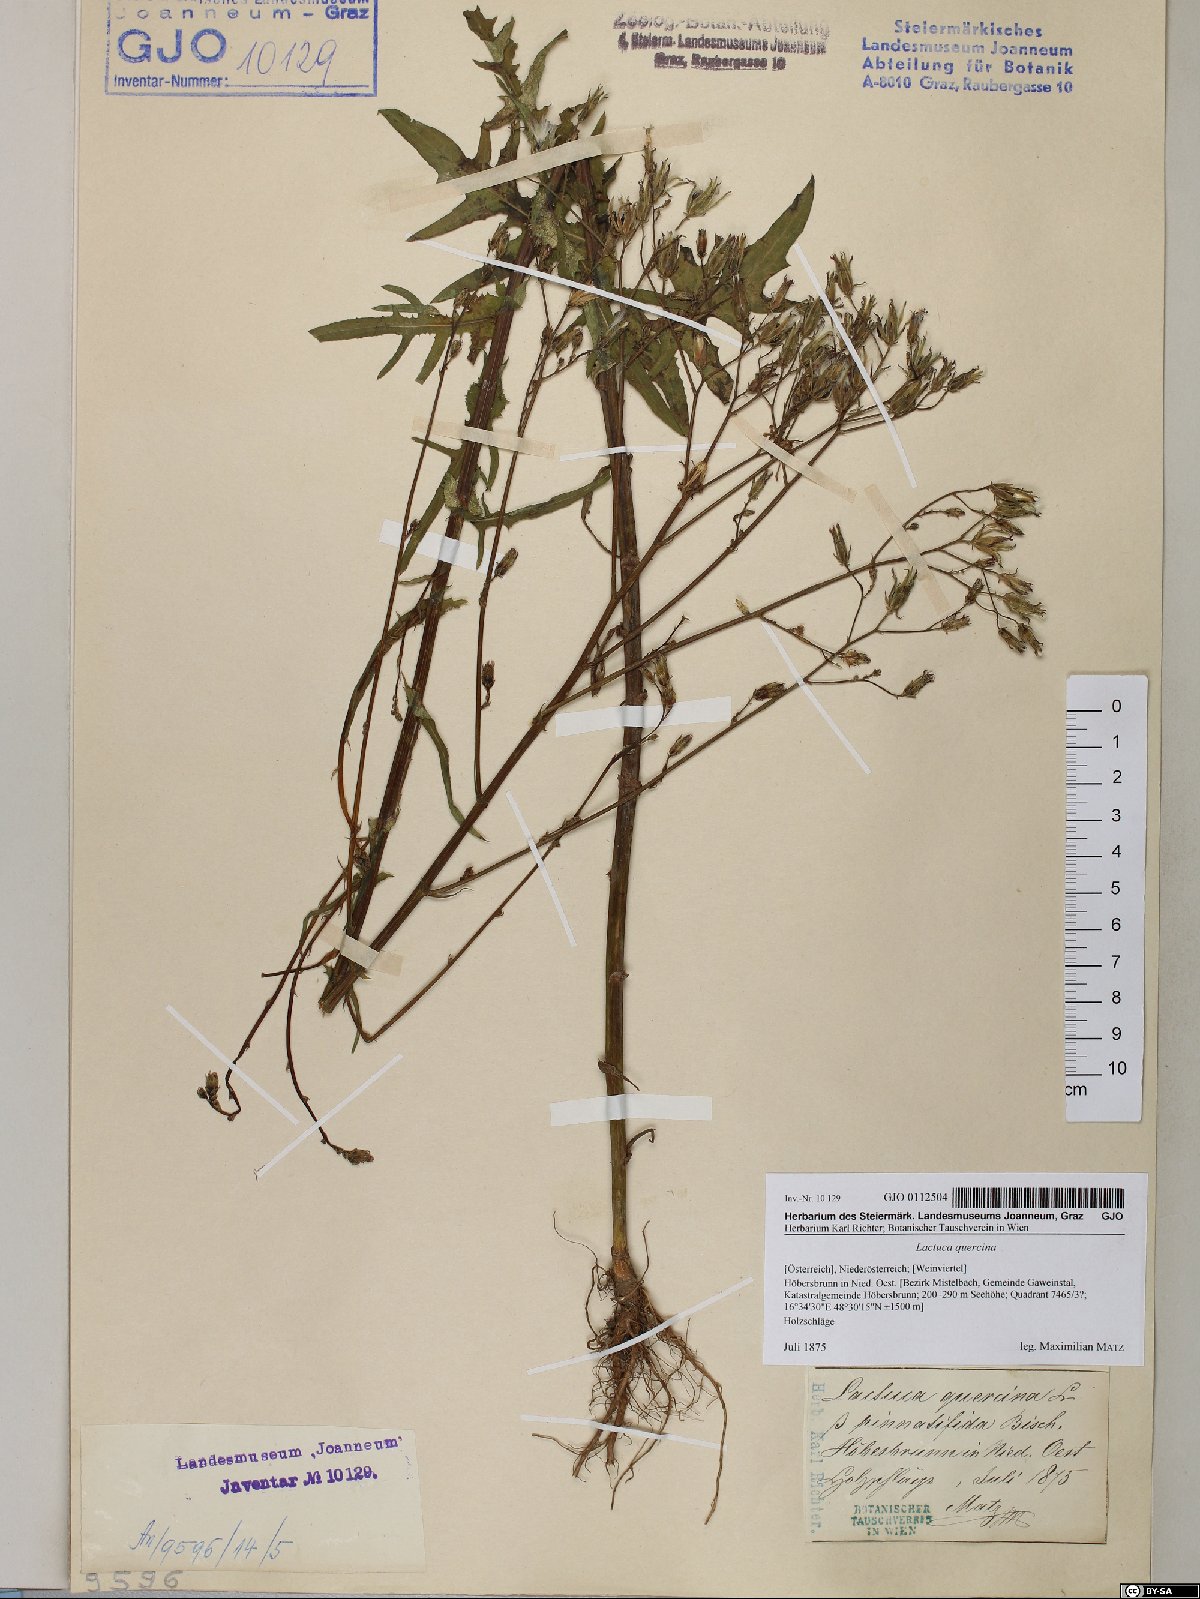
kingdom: Plantae
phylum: Tracheophyta
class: Magnoliopsida
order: Asterales
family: Asteraceae
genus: Lactuca
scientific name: Lactuca quercina
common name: Wild lettuce
